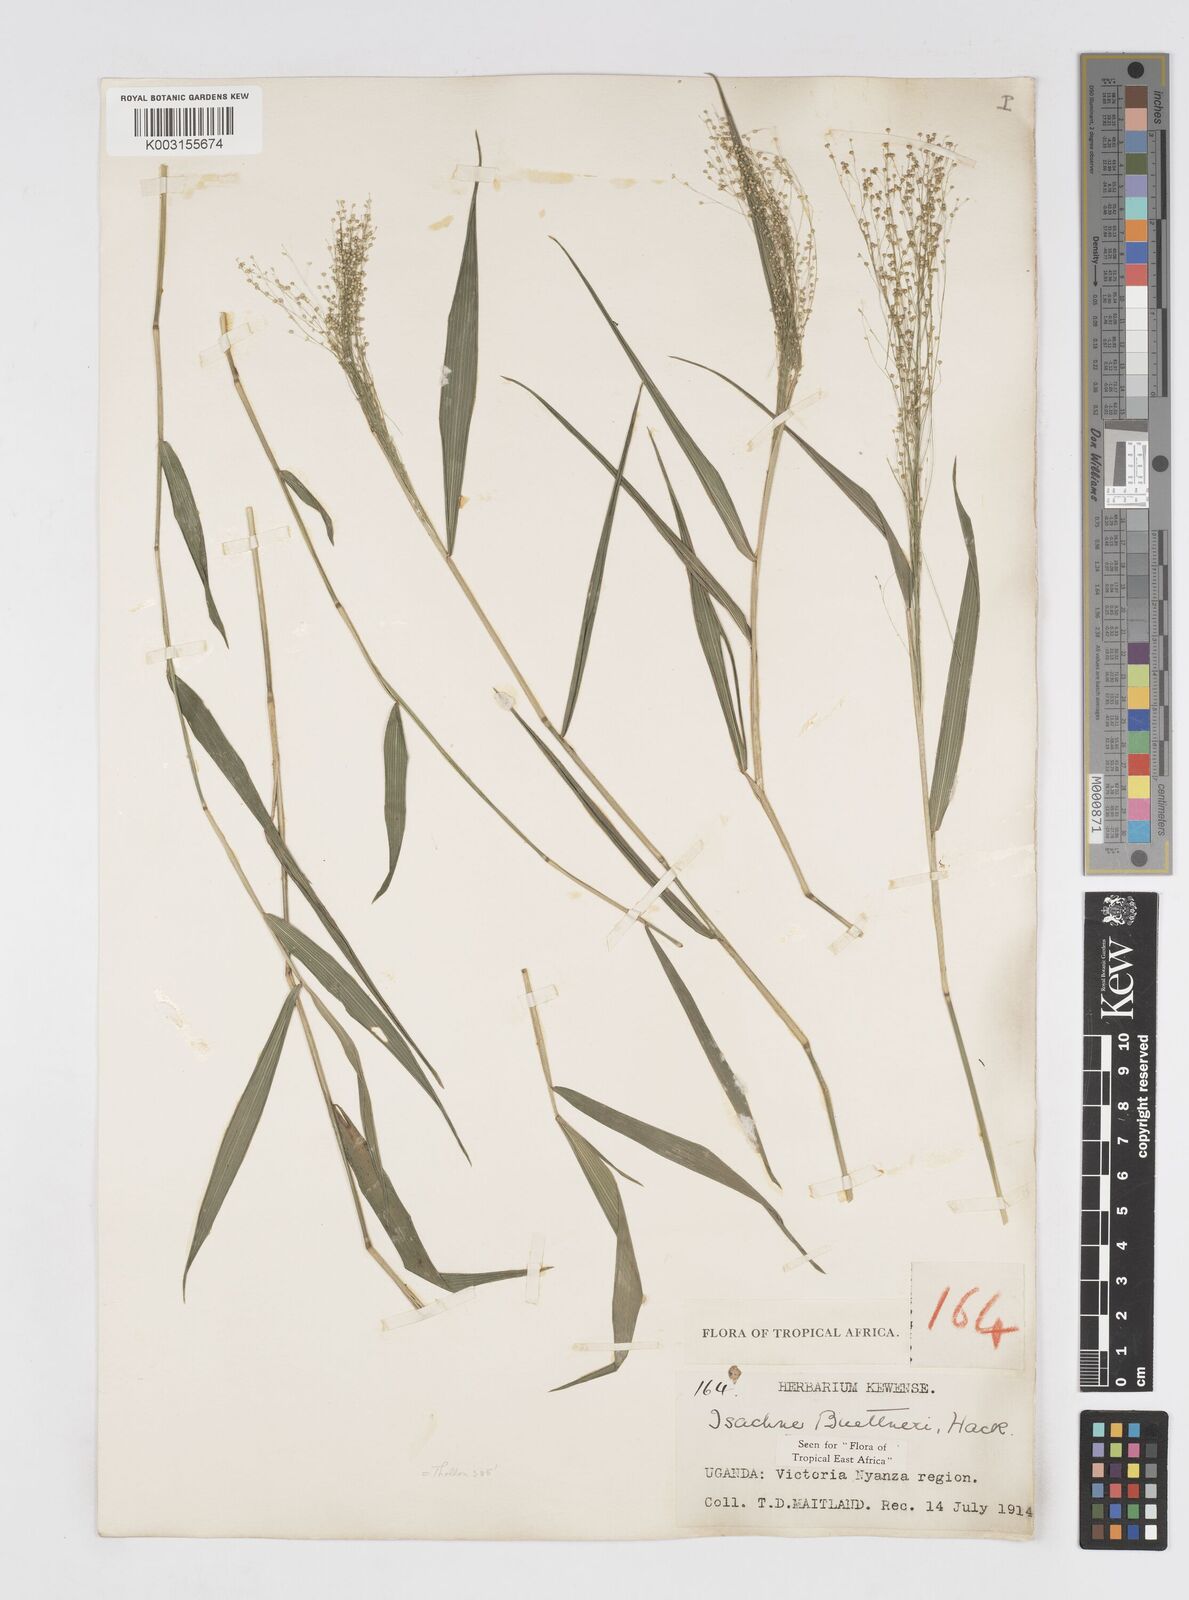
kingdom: Plantae
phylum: Tracheophyta
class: Liliopsida
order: Poales
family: Poaceae
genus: Isachne
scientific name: Isachne albens
